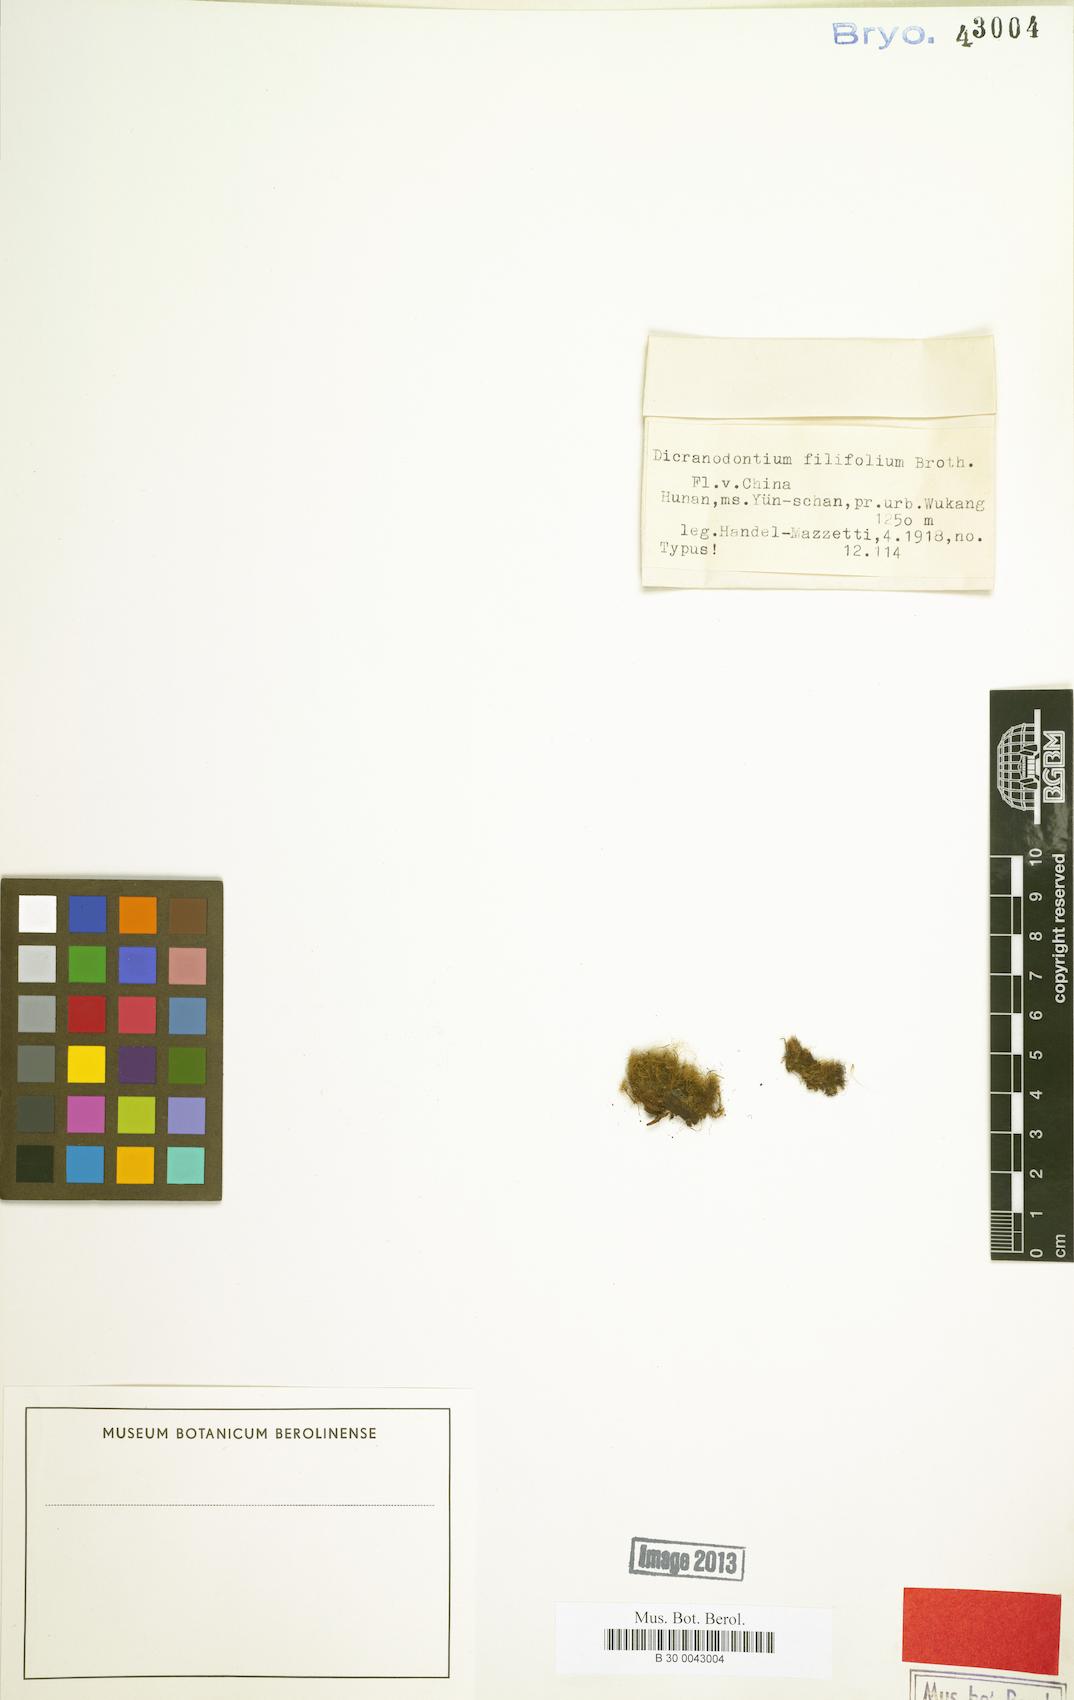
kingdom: Plantae
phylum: Bryophyta
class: Bryopsida
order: Dicranales
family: Leucobryaceae
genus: Dicranodontium
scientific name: Dicranodontium filifolium
